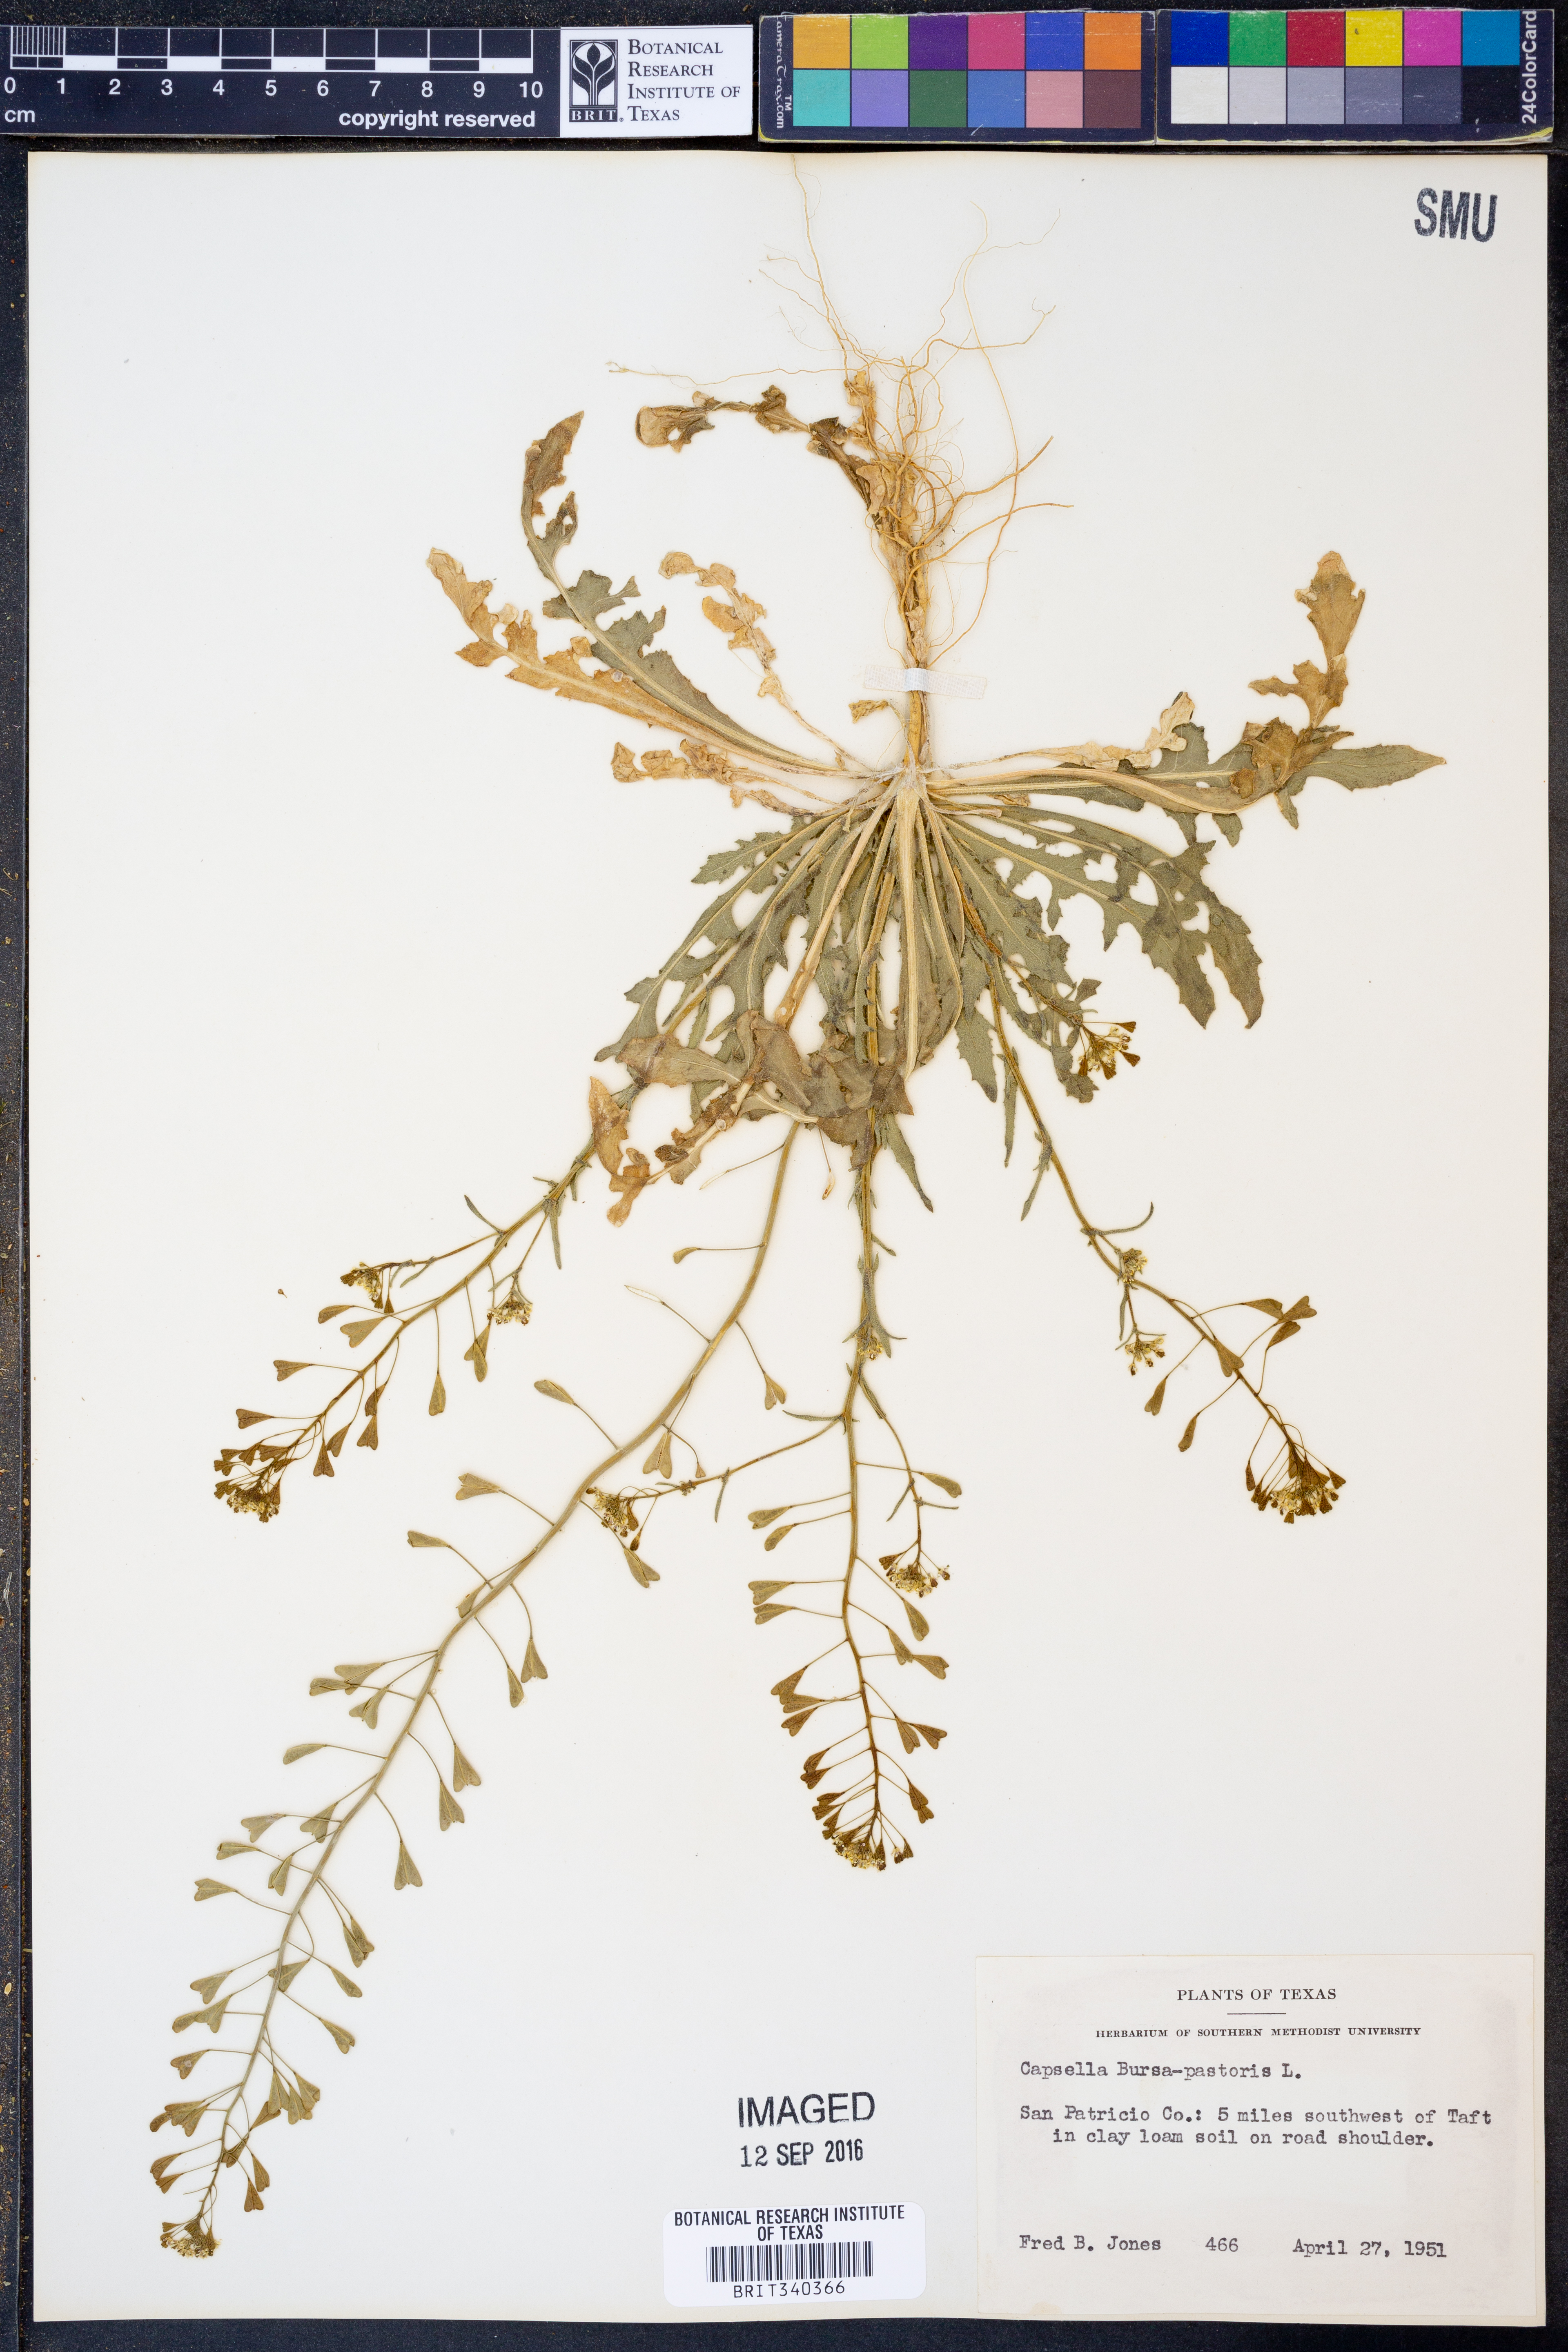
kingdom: Plantae
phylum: Tracheophyta
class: Magnoliopsida
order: Brassicales
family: Brassicaceae
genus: Capsella
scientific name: Capsella bursa-pastoris
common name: Shepherd's purse
